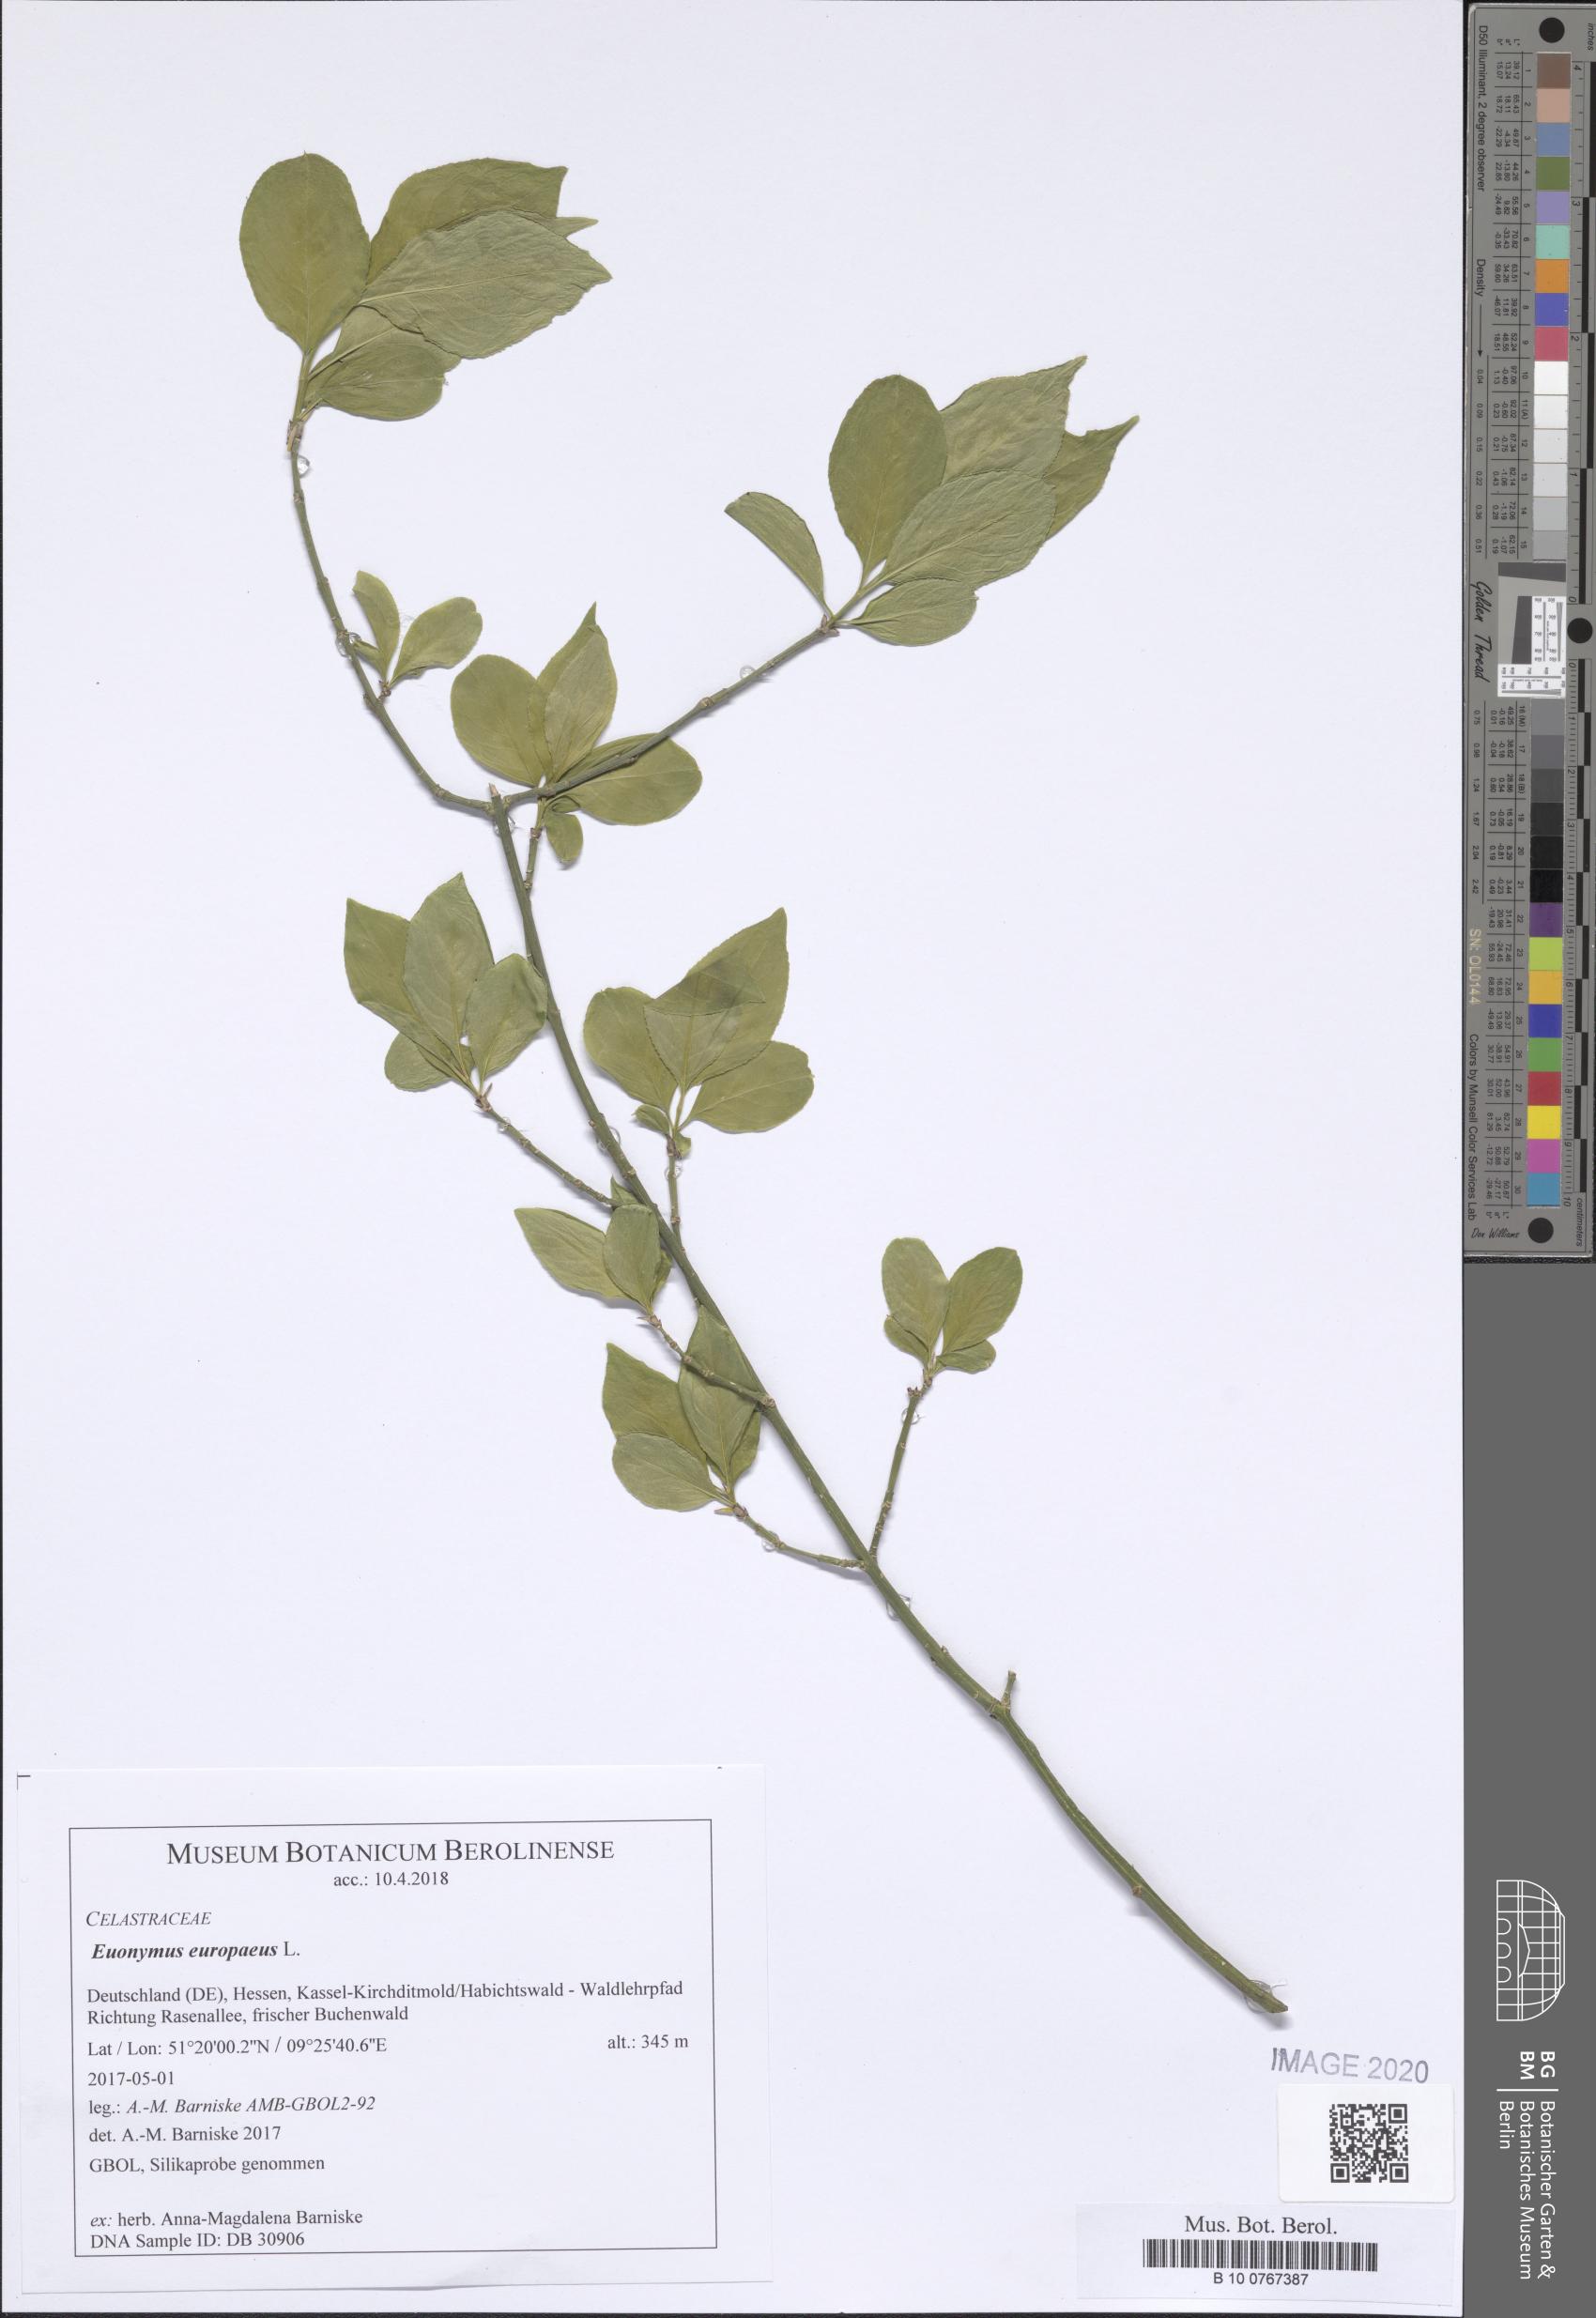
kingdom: Plantae
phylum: Tracheophyta
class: Magnoliopsida
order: Celastrales
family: Celastraceae
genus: Euonymus
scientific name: Euonymus europaeus
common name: Spindle
